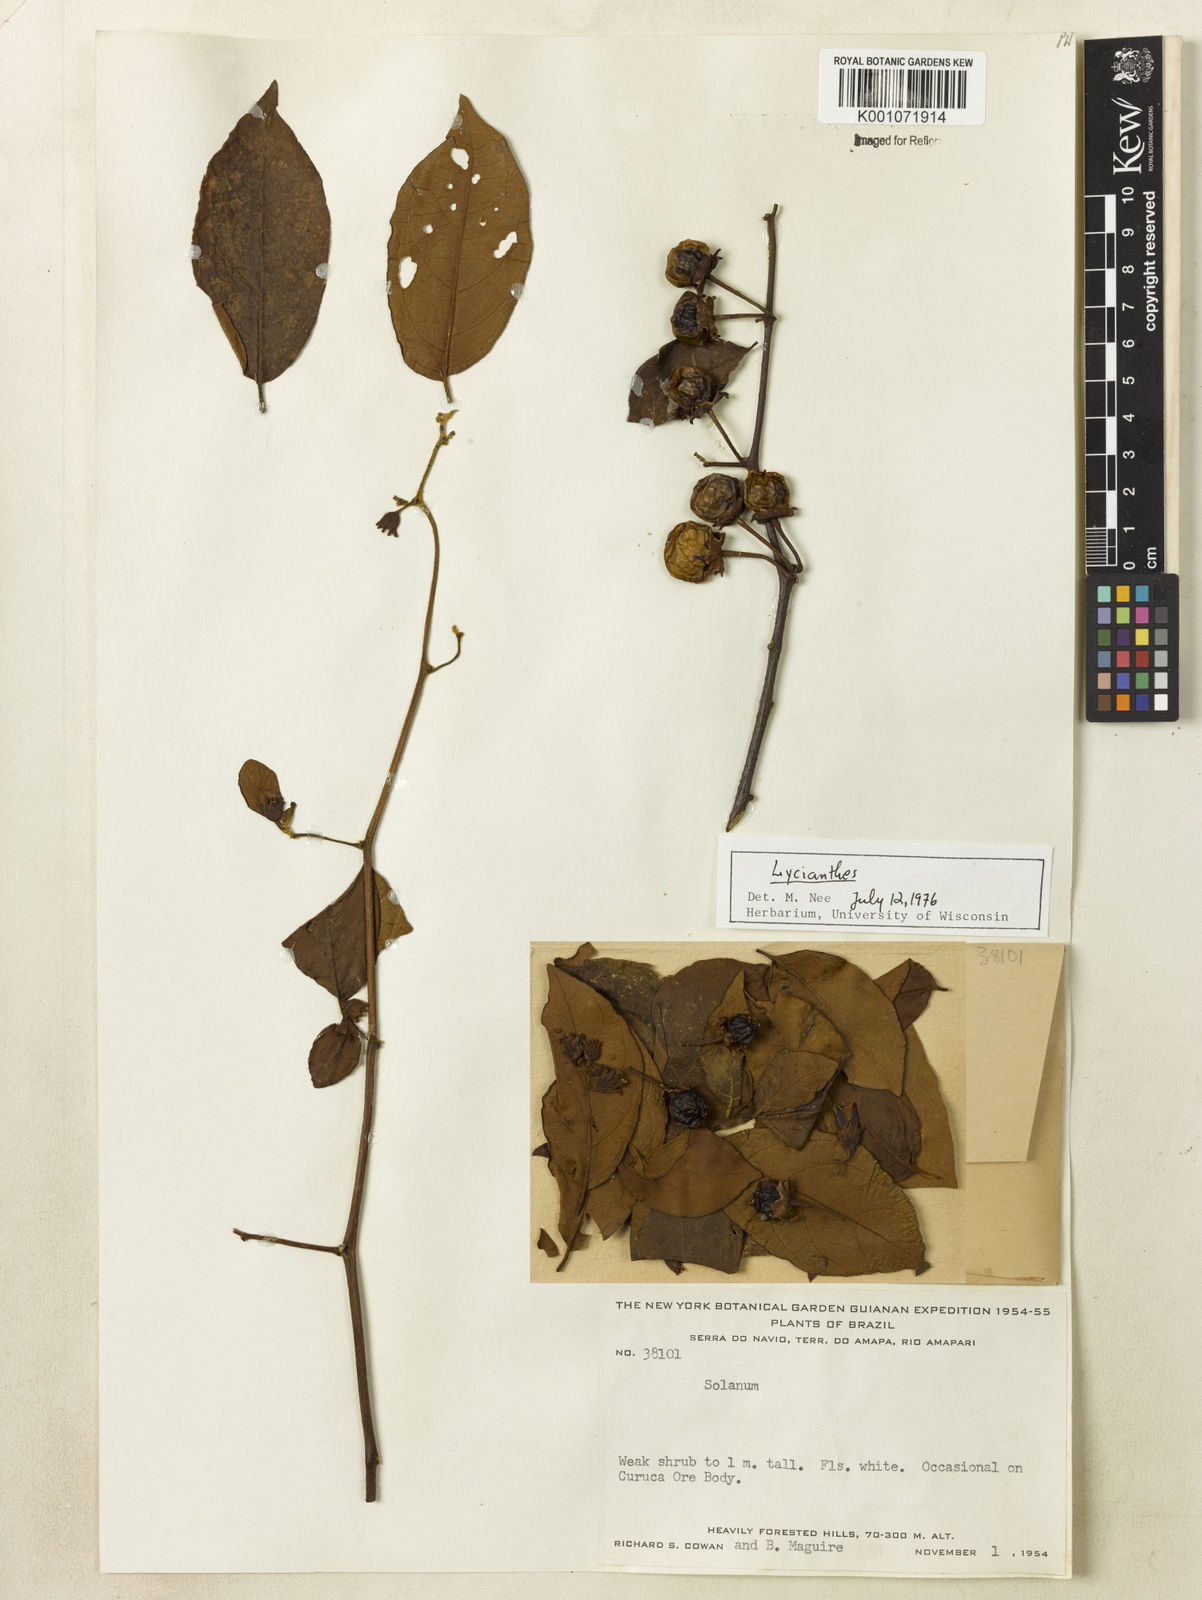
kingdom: Plantae
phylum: Tracheophyta
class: Magnoliopsida
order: Solanales
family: Solanaceae
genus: Lycianthes
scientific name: Lycianthes
